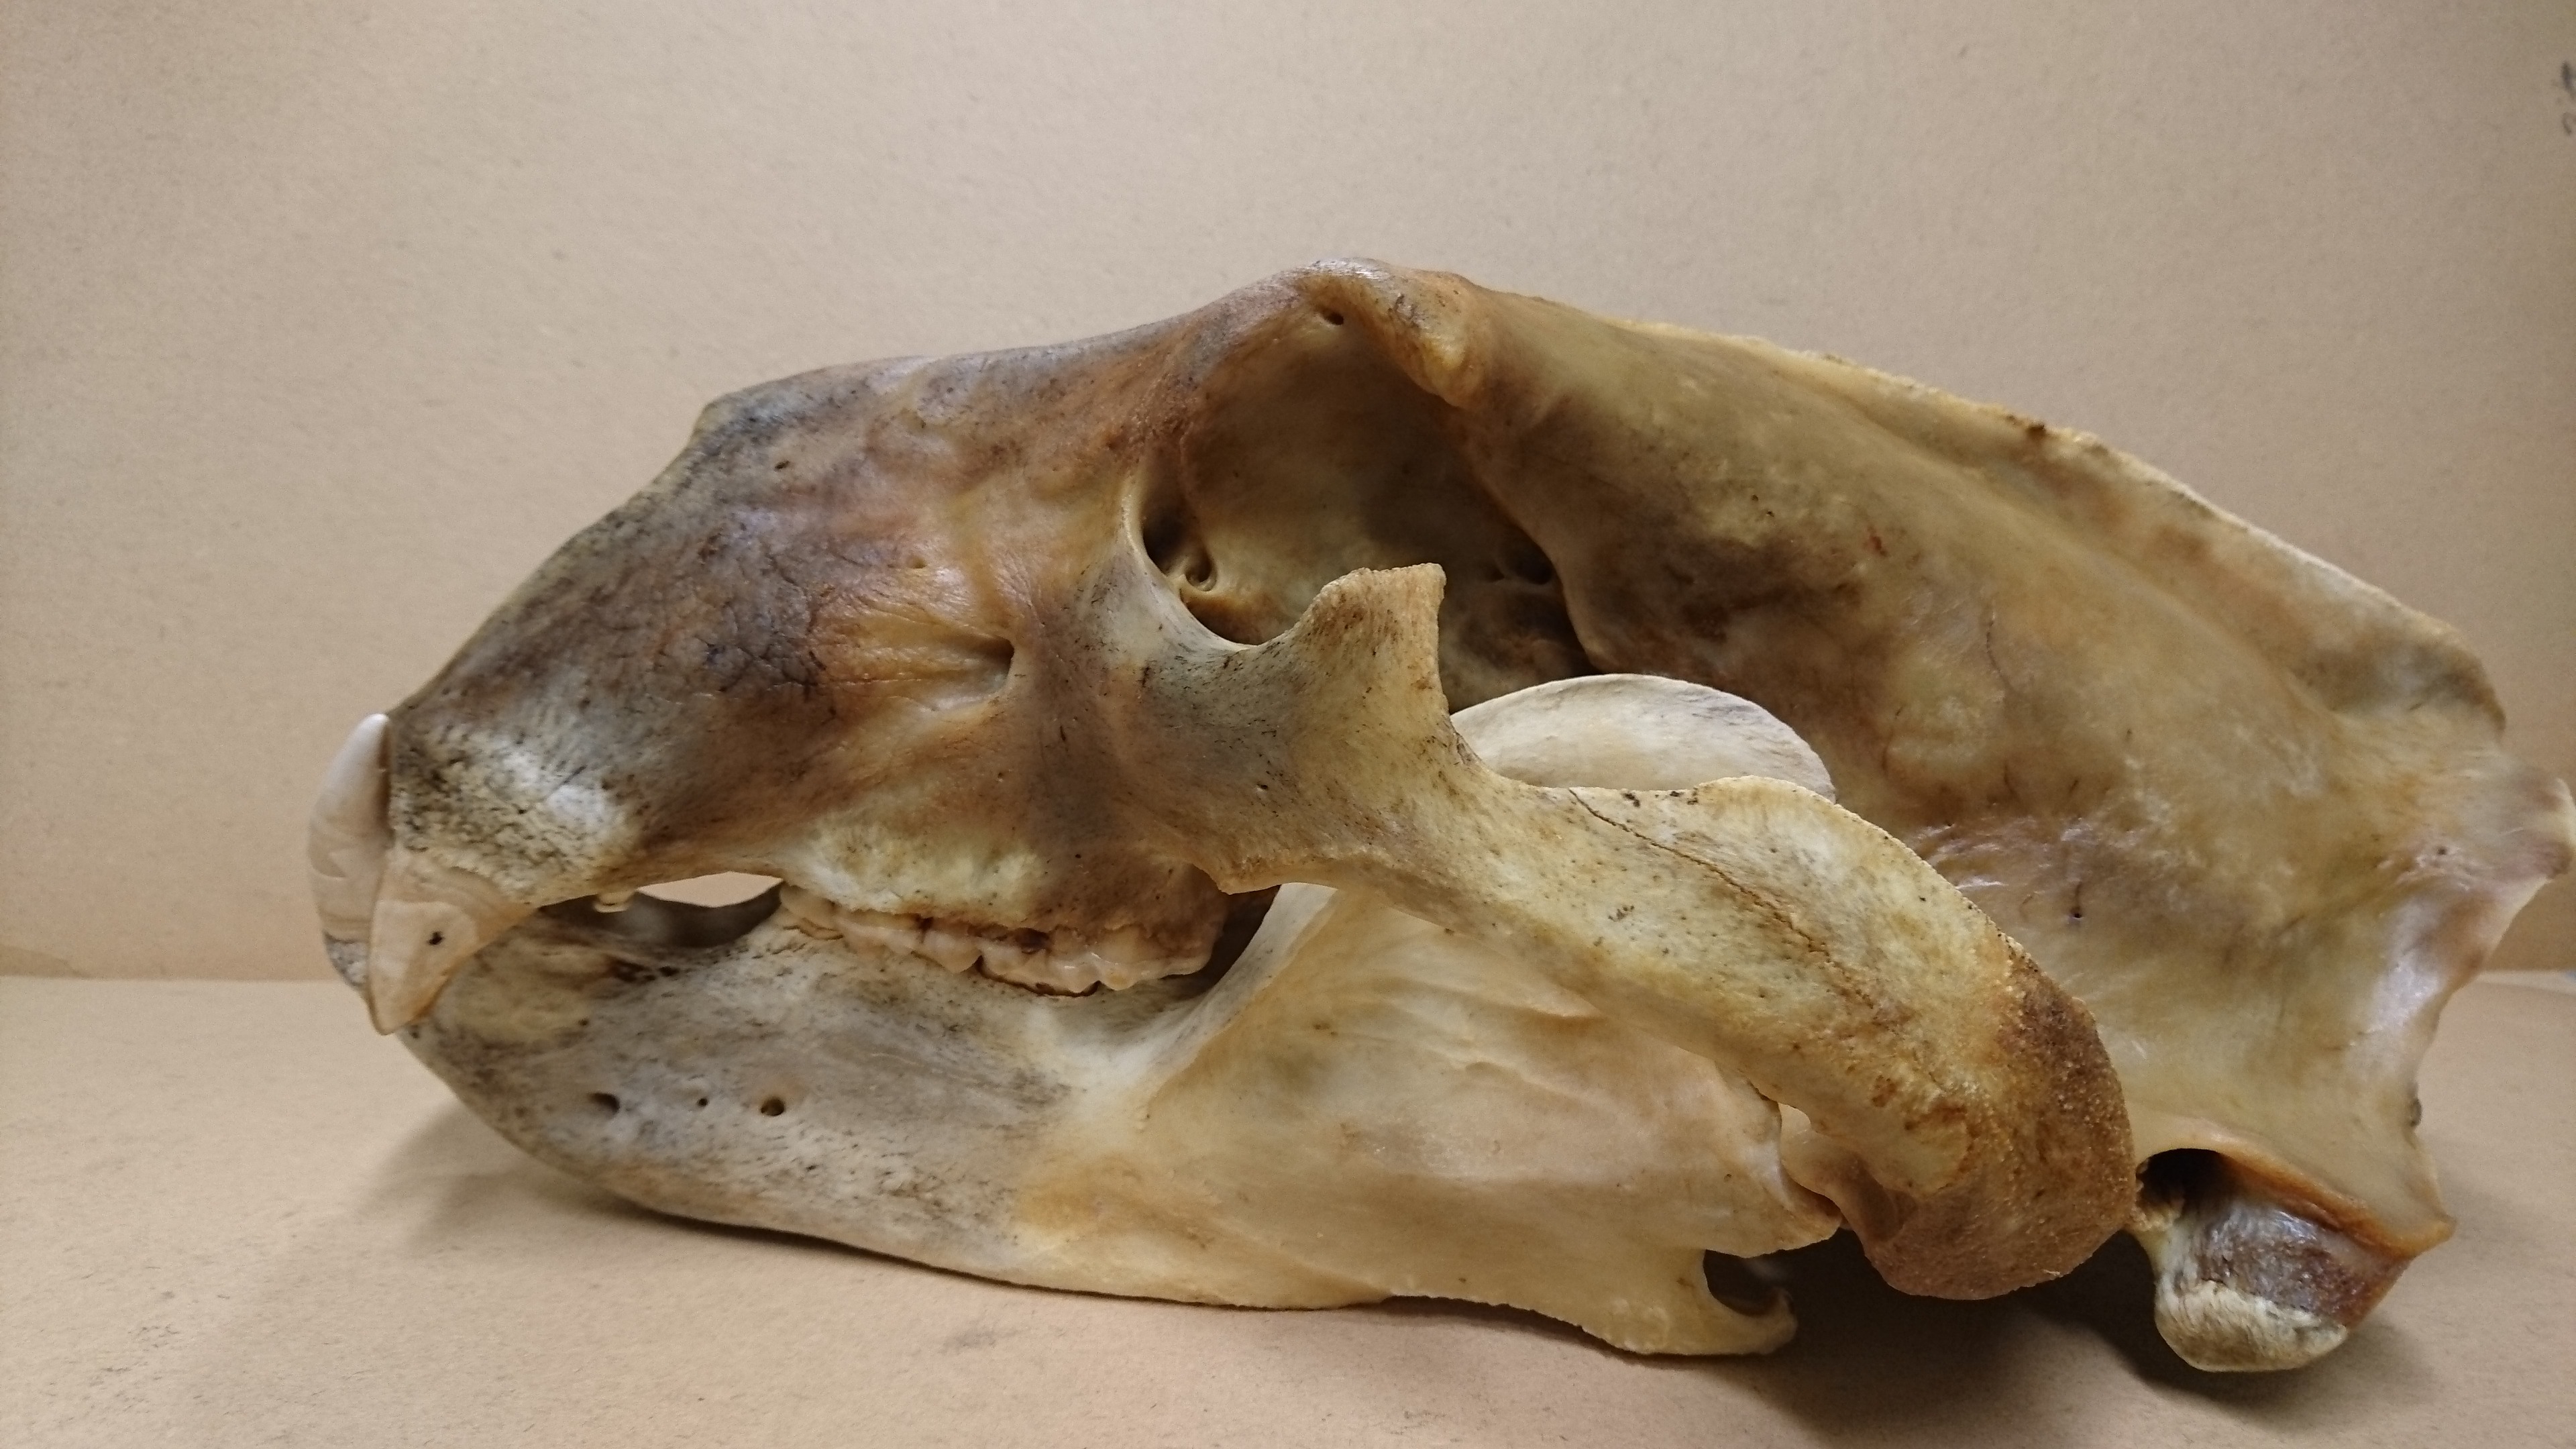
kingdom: Animalia
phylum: Chordata
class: Mammalia
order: Carnivora
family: Ursidae
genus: Ursus
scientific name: Ursus maritimus
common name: Polar bear
